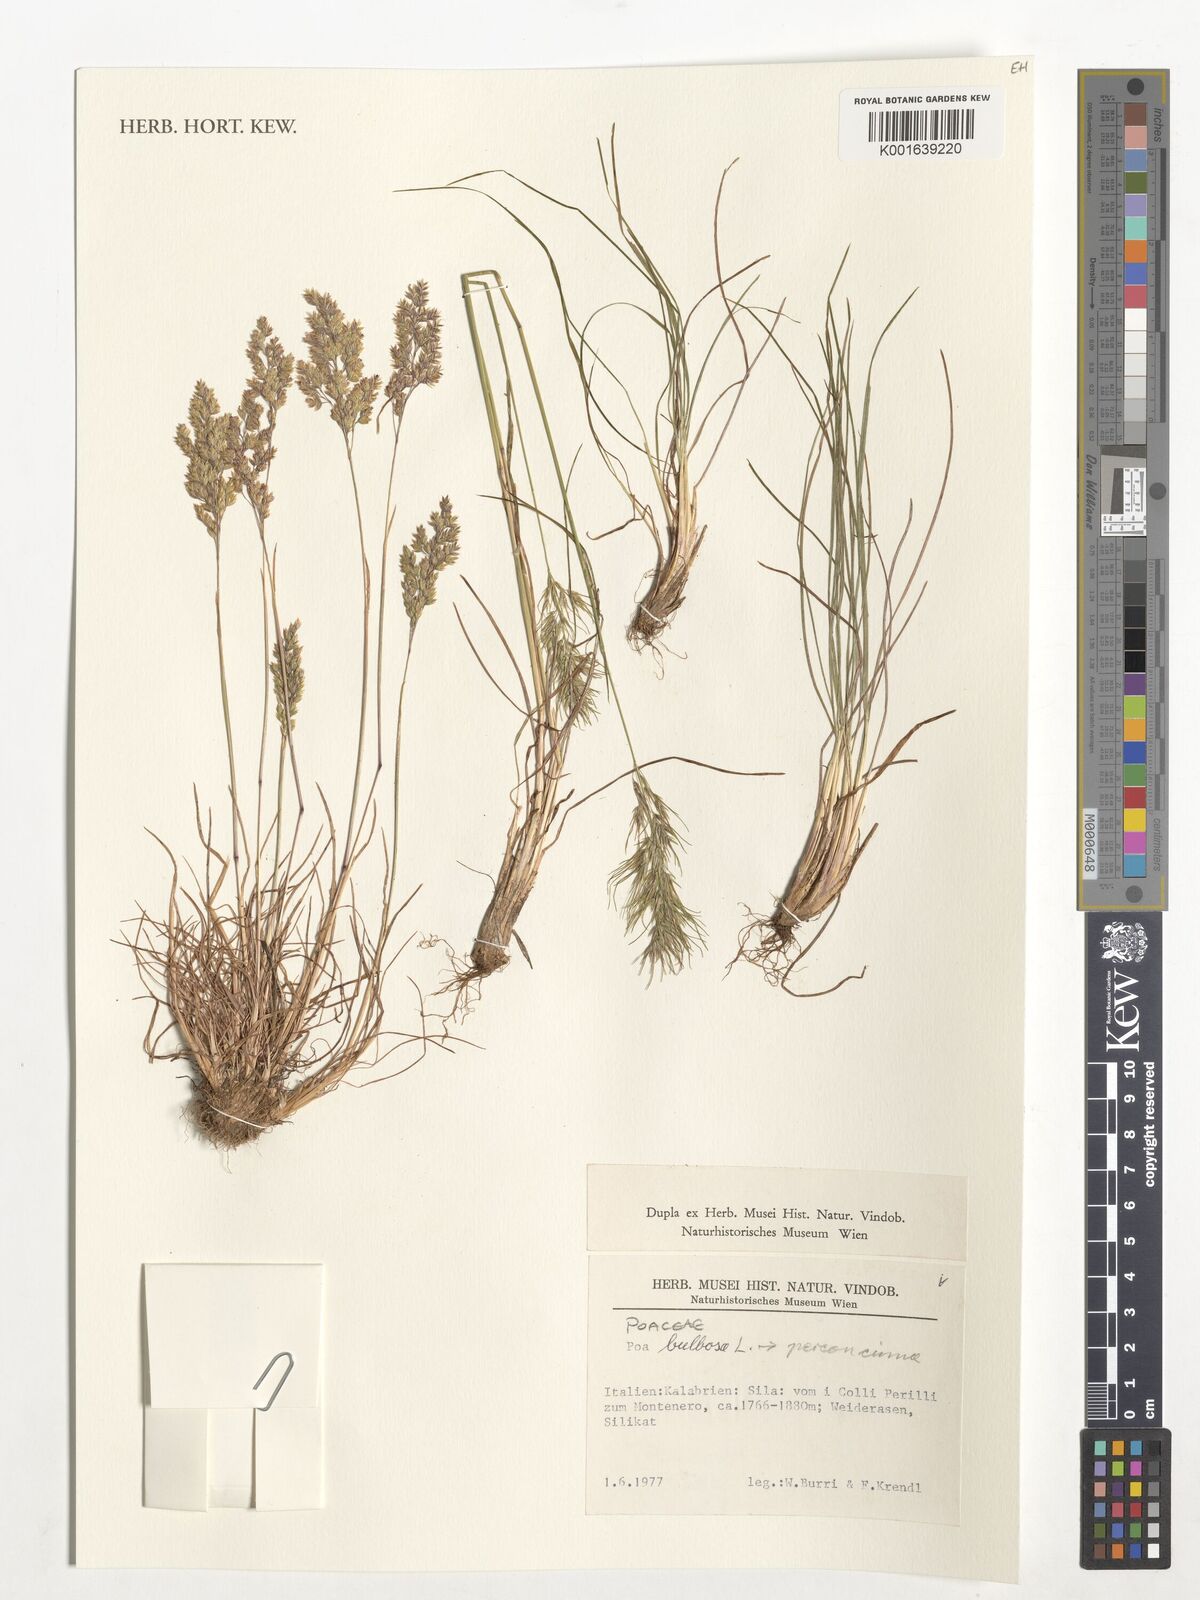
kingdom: Plantae
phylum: Tracheophyta
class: Liliopsida
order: Poales
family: Poaceae
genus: Poa
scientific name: Poa perconcinna
